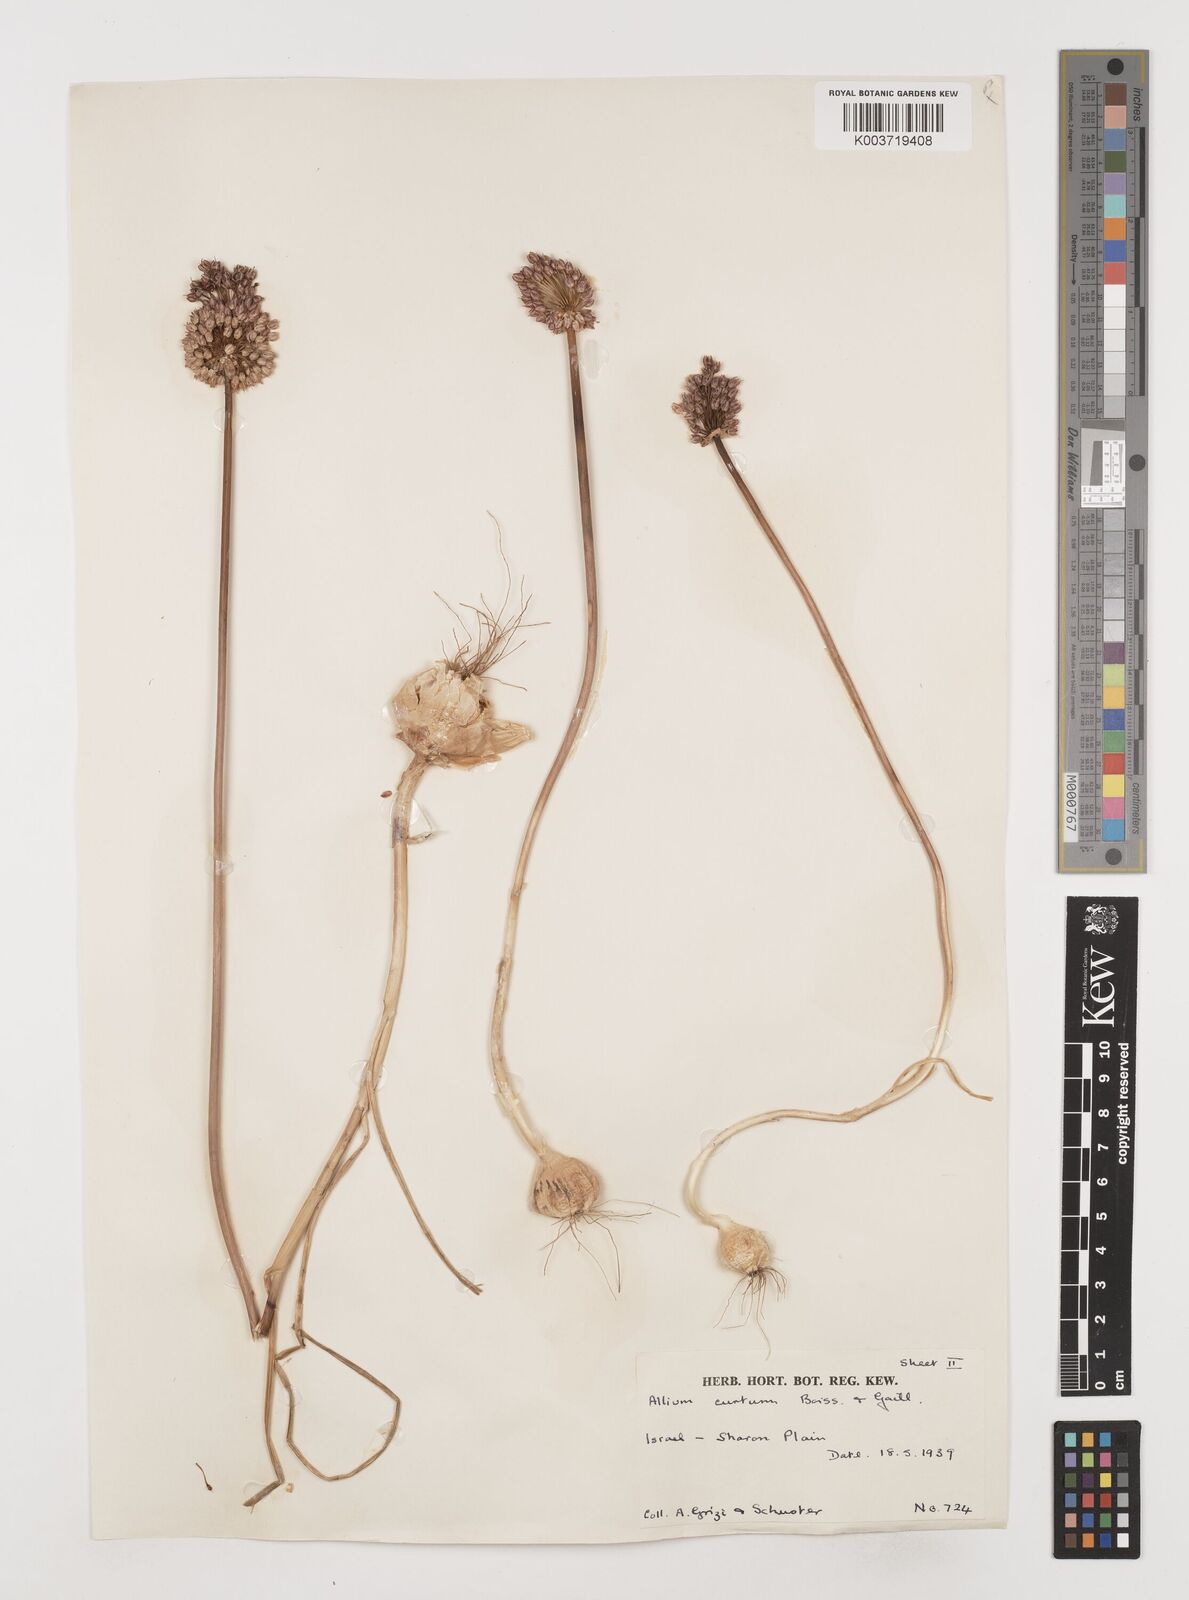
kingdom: Plantae
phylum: Tracheophyta
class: Liliopsida
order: Asparagales
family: Amaryllidaceae
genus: Allium
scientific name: Allium curtum
